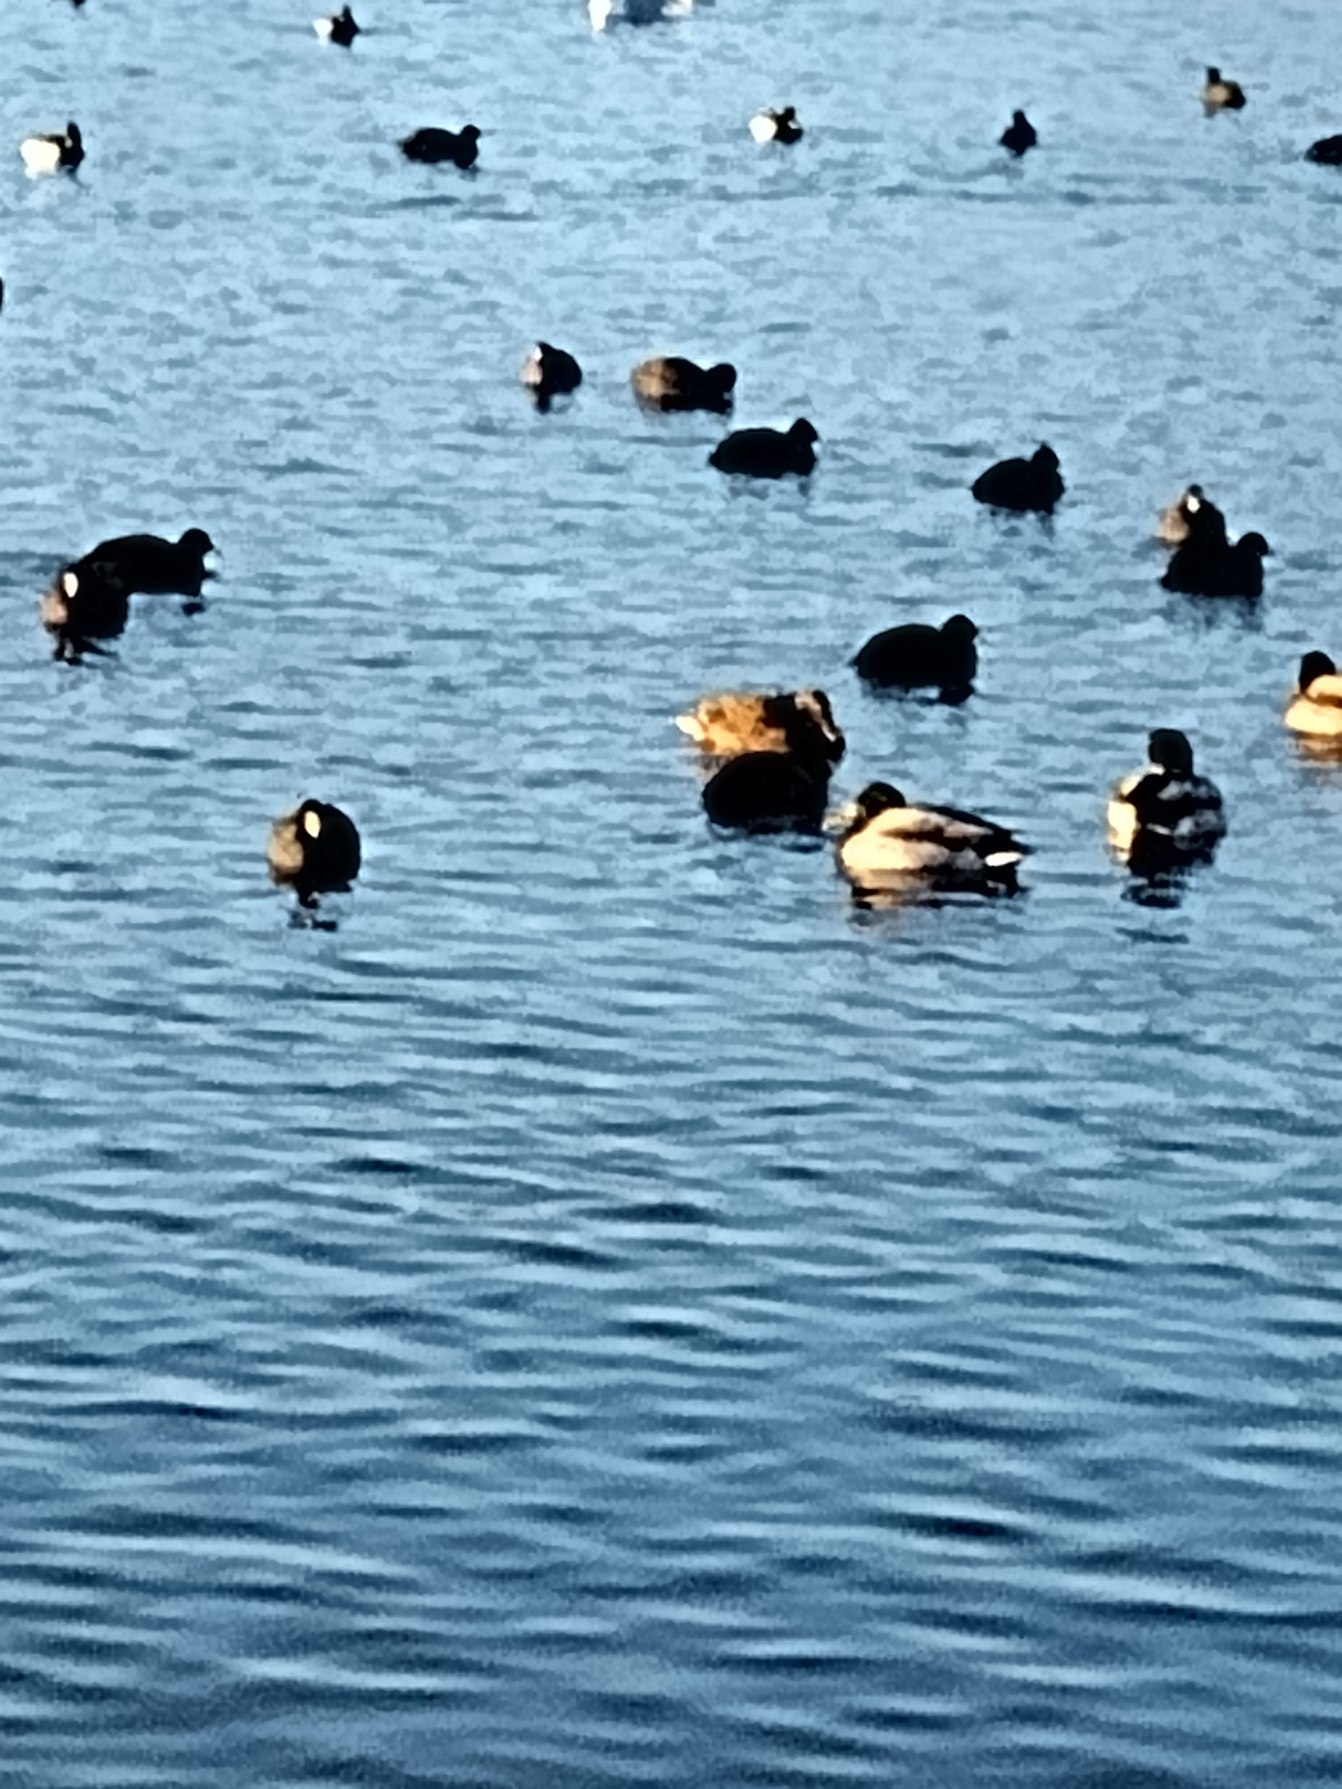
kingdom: Animalia
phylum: Chordata
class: Aves
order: Anseriformes
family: Anatidae
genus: Anas
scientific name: Anas platyrhynchos
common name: Gråand
